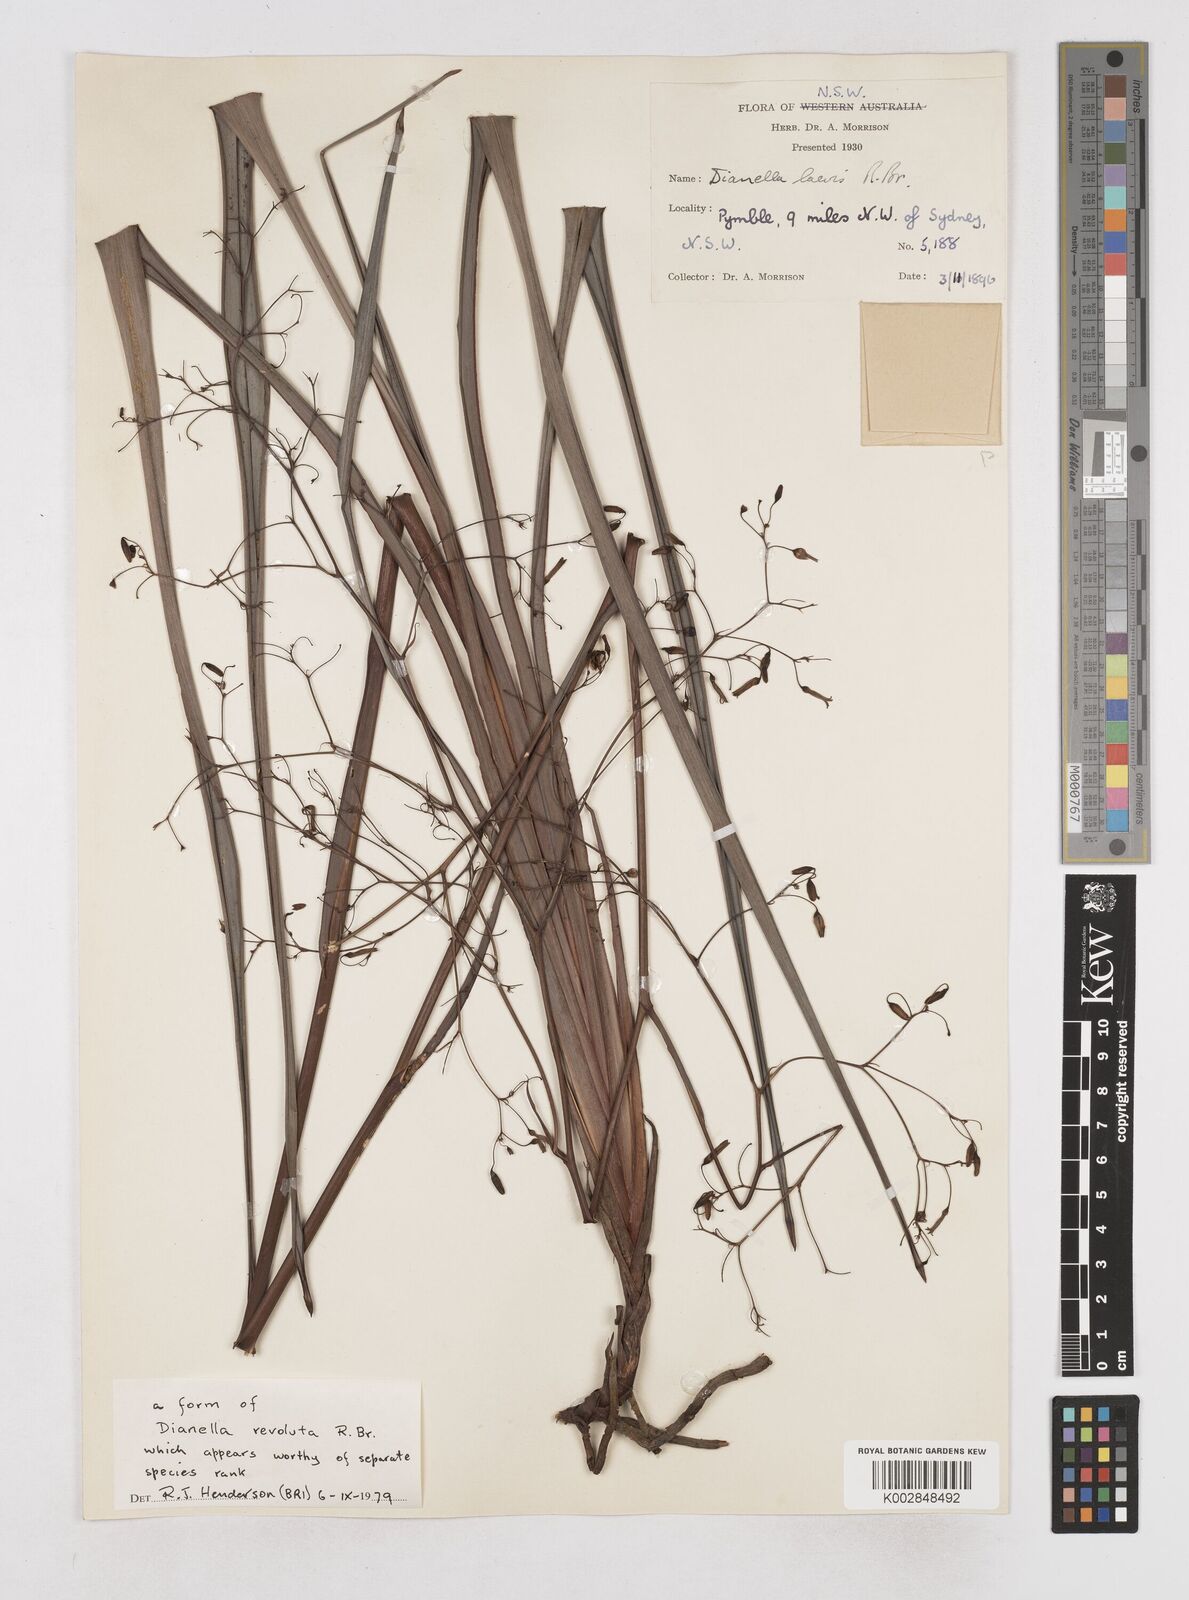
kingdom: Plantae
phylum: Tracheophyta
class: Liliopsida
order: Asparagales
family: Asphodelaceae
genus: Dianella
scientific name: Dianella longifolia
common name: Blue flax-lily
